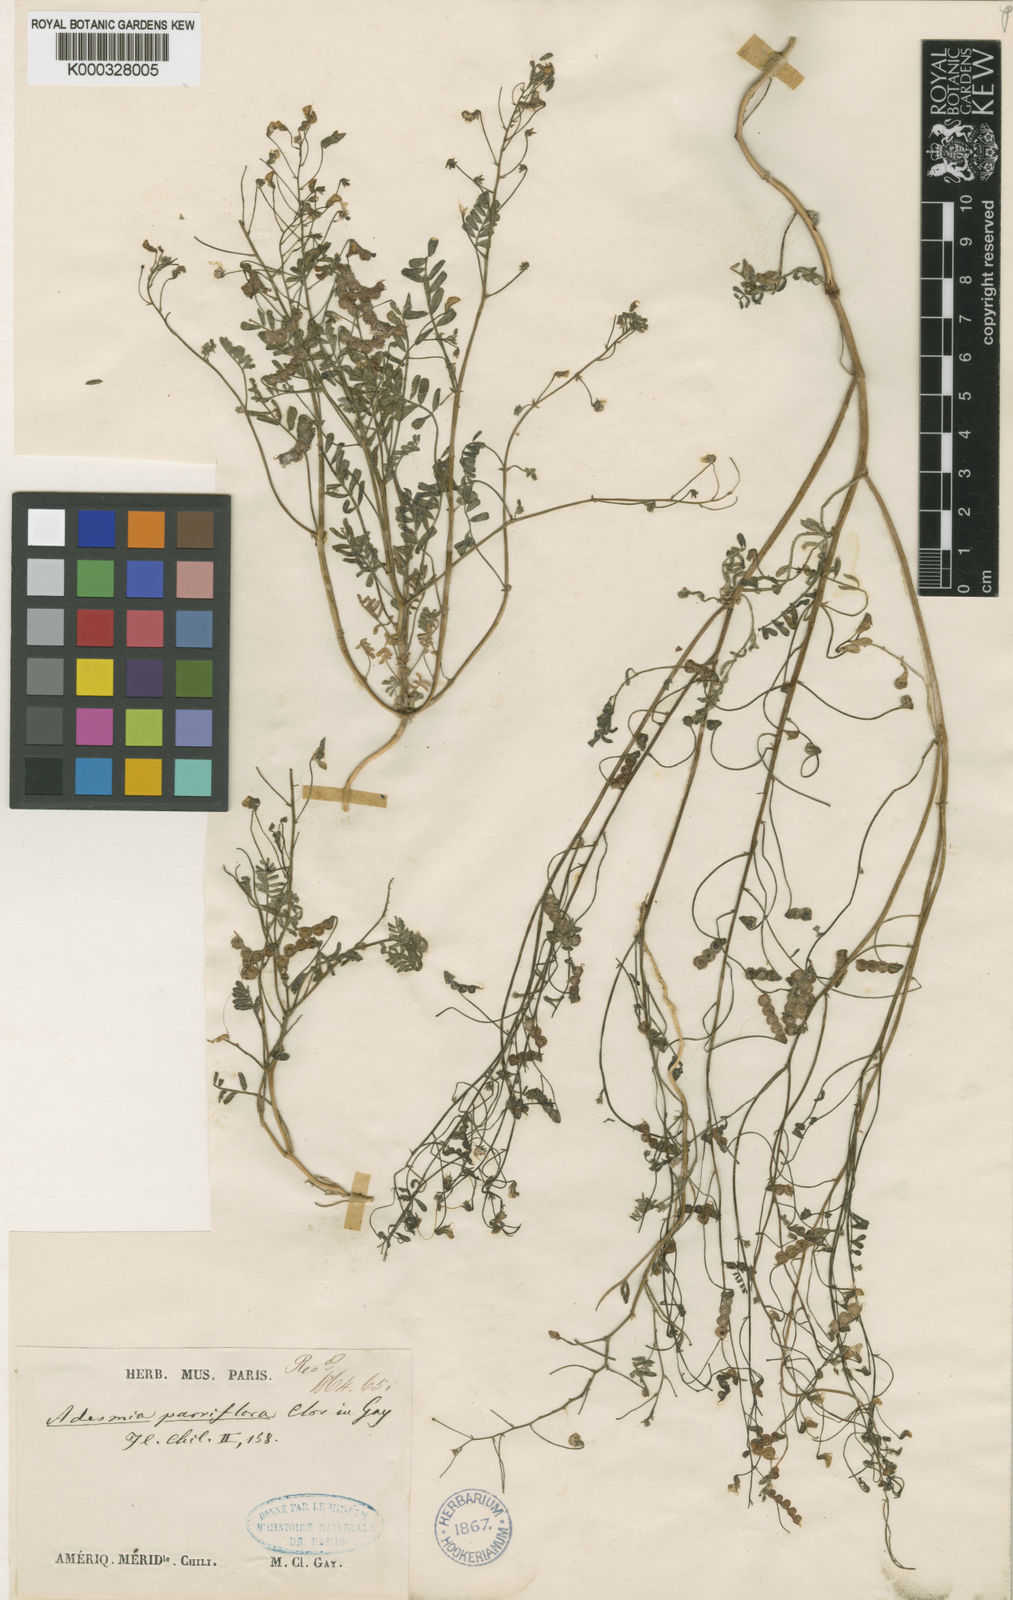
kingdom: Plantae
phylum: Tracheophyta
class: Magnoliopsida
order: Fabales
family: Fabaceae
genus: Adesmia
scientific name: Adesmia parviflora
